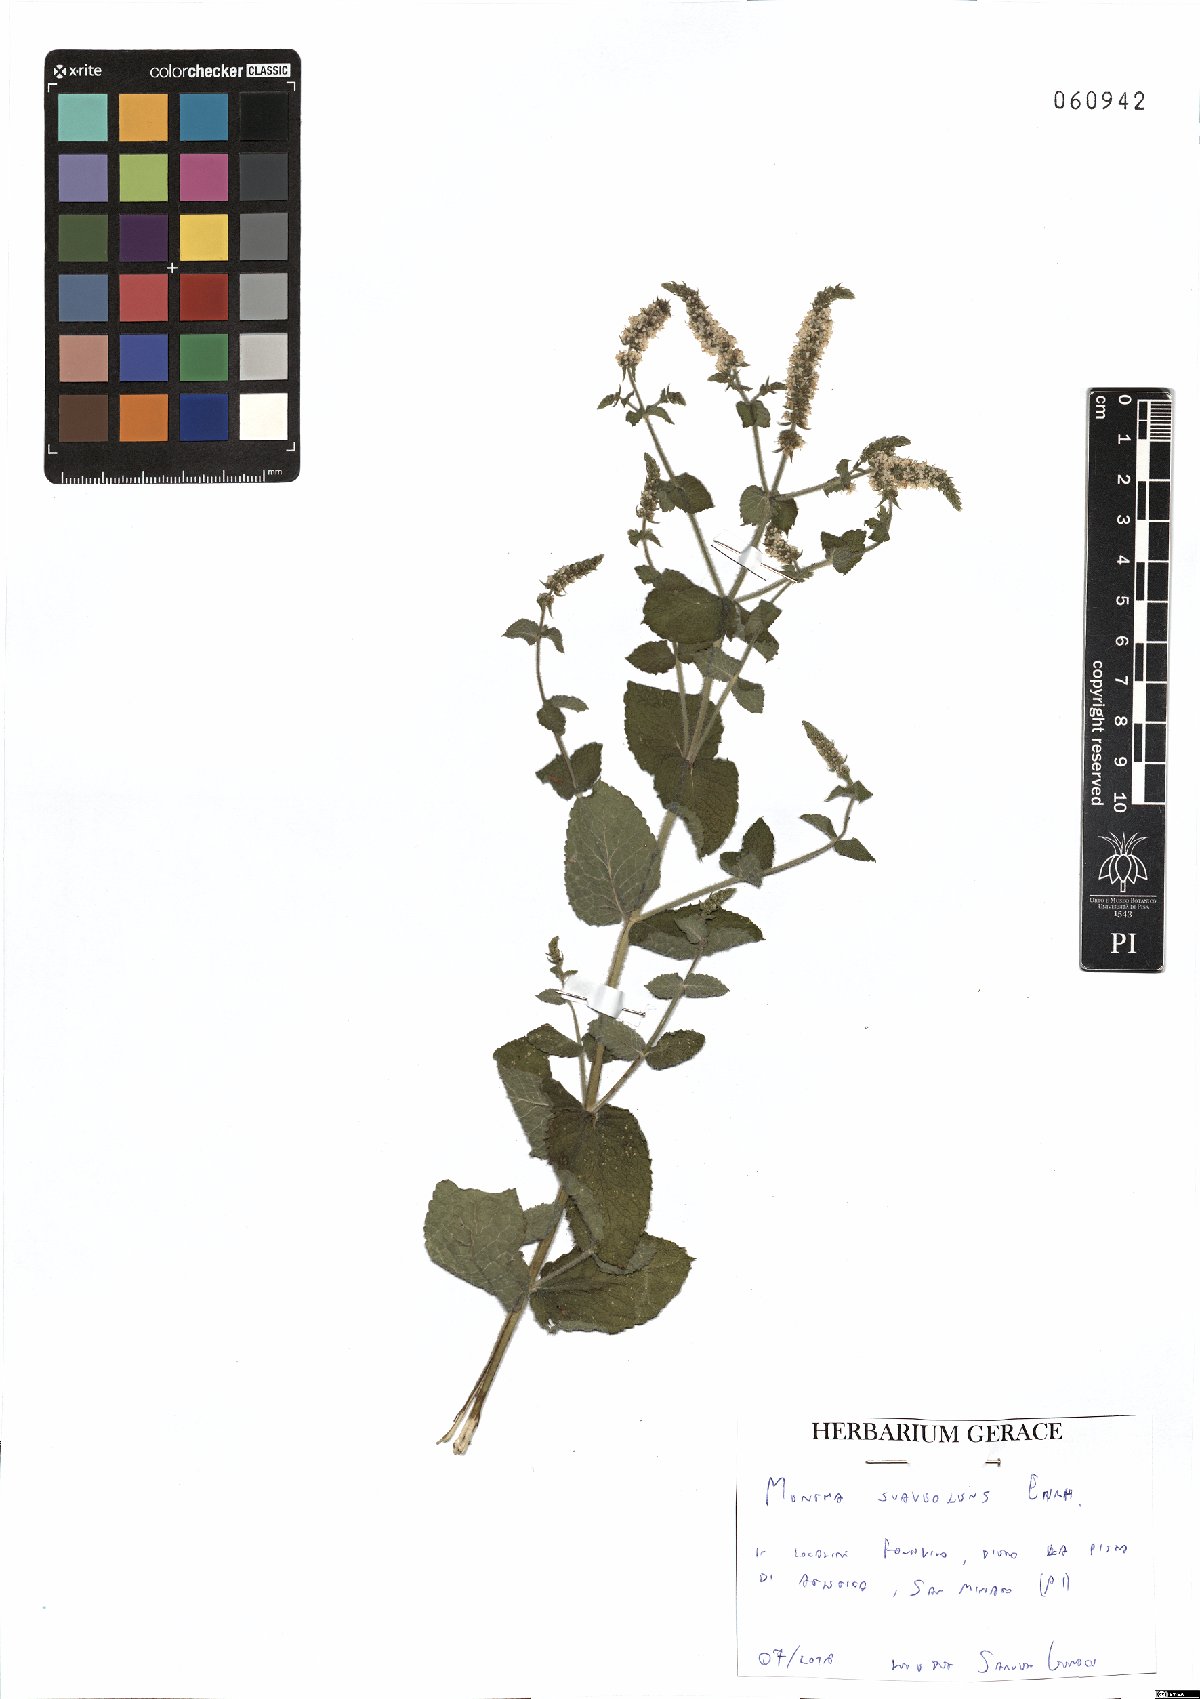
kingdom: Plantae
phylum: Tracheophyta
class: Magnoliopsida
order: Lamiales
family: Lamiaceae
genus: Mentha
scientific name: Mentha suaveolens
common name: Apple mint
